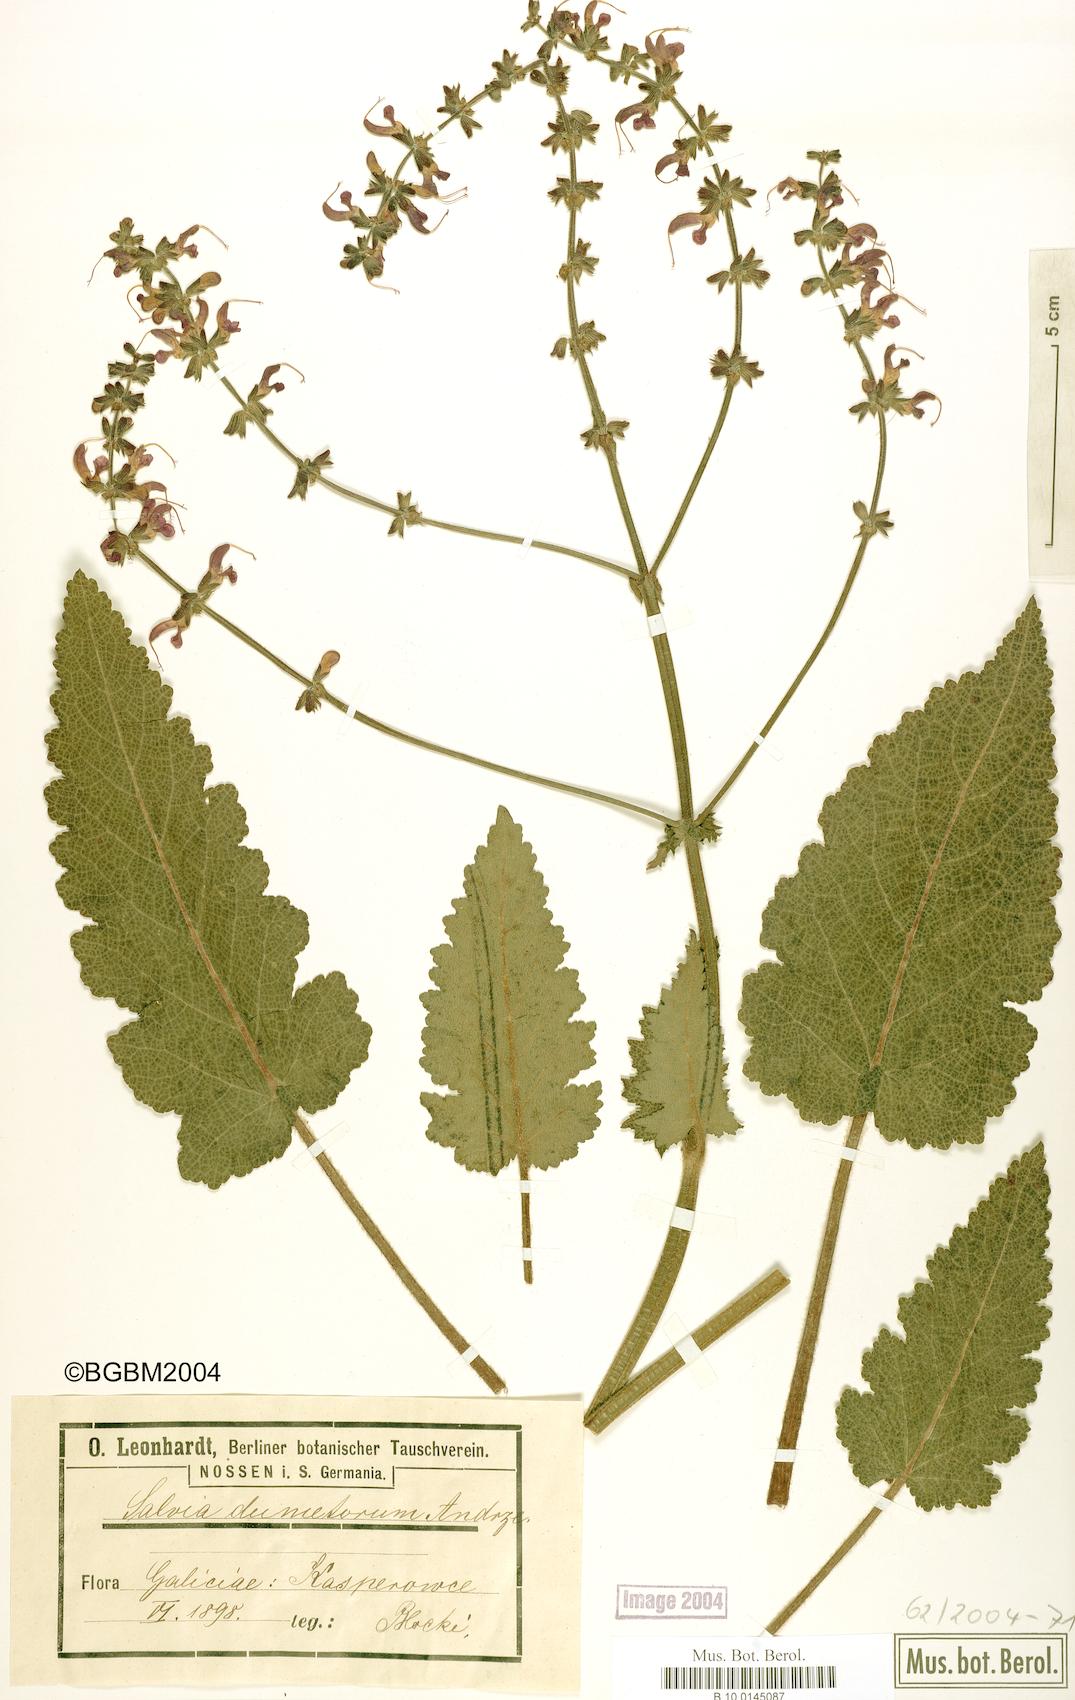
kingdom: Plantae
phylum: Tracheophyta
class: Magnoliopsida
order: Lamiales
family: Lamiaceae
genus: Salvia
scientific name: Salvia dumetorum
